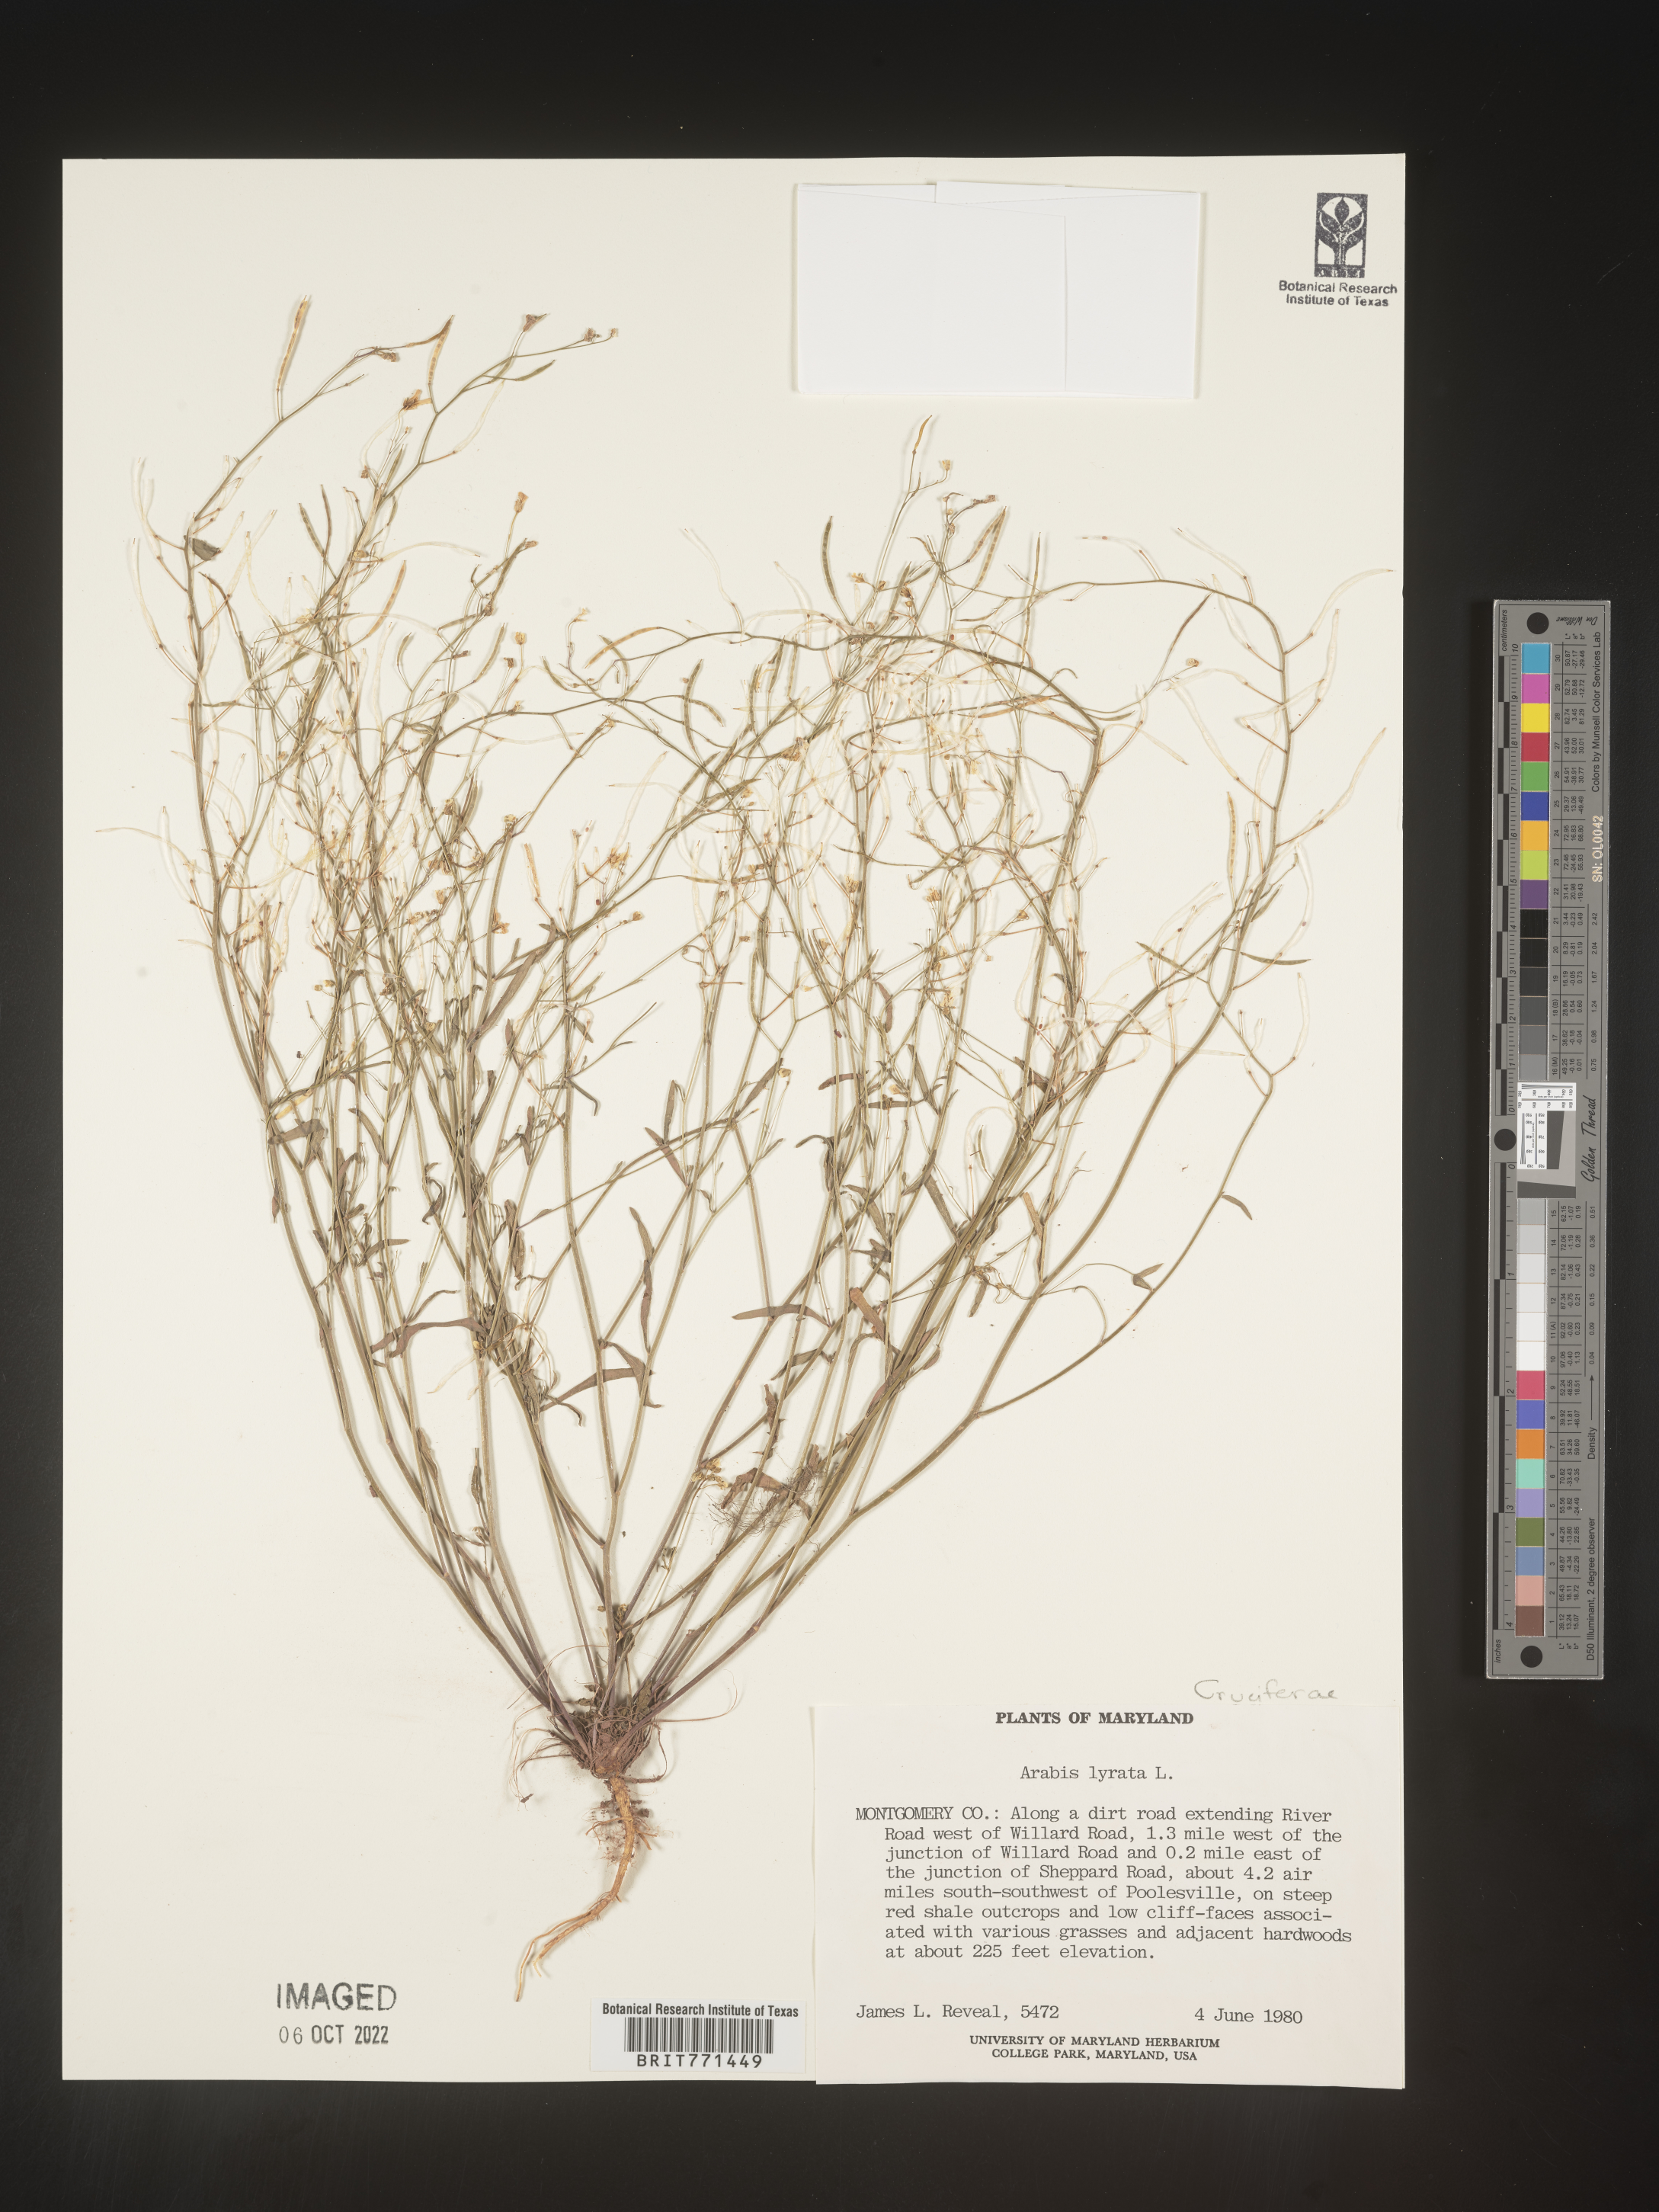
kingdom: Plantae
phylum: Tracheophyta
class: Magnoliopsida
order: Brassicales
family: Brassicaceae
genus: Arabidopsis
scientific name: Arabidopsis lyrata
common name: Lyrate rockcress
